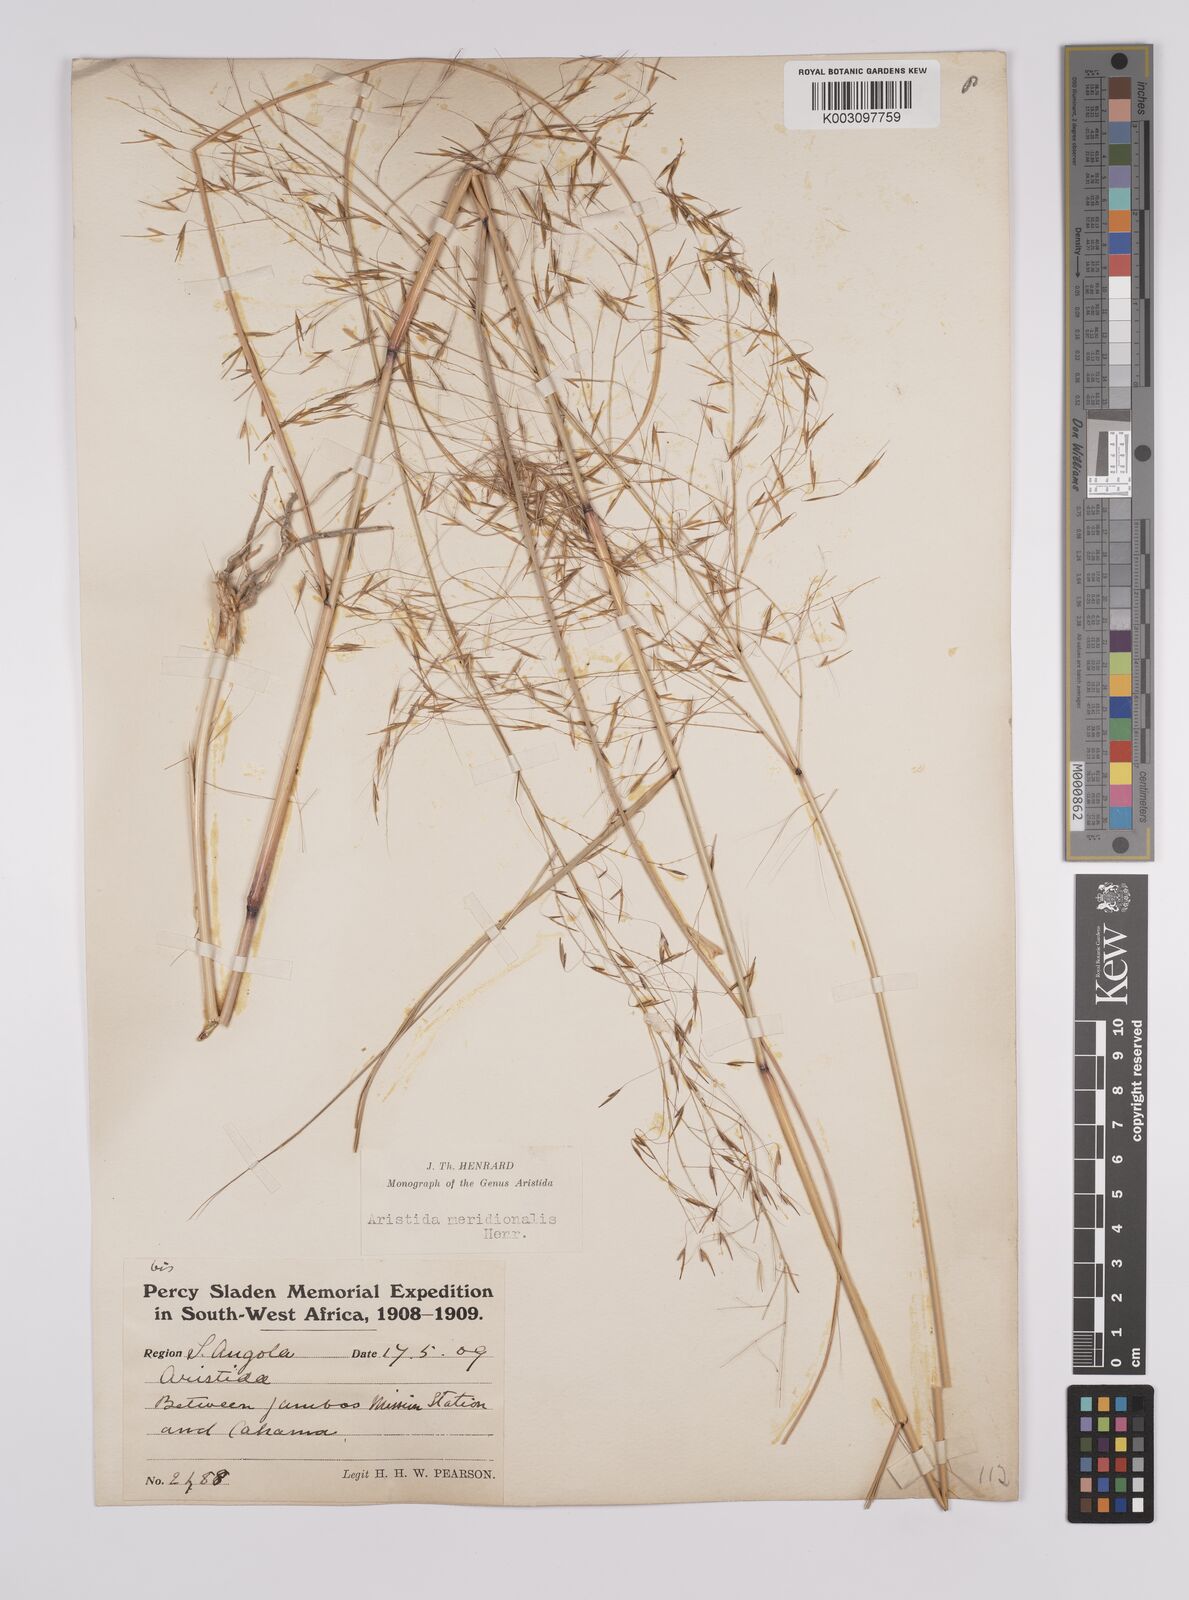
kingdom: Plantae
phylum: Tracheophyta
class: Liliopsida
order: Poales
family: Poaceae
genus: Aristida
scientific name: Aristida meridionalis
